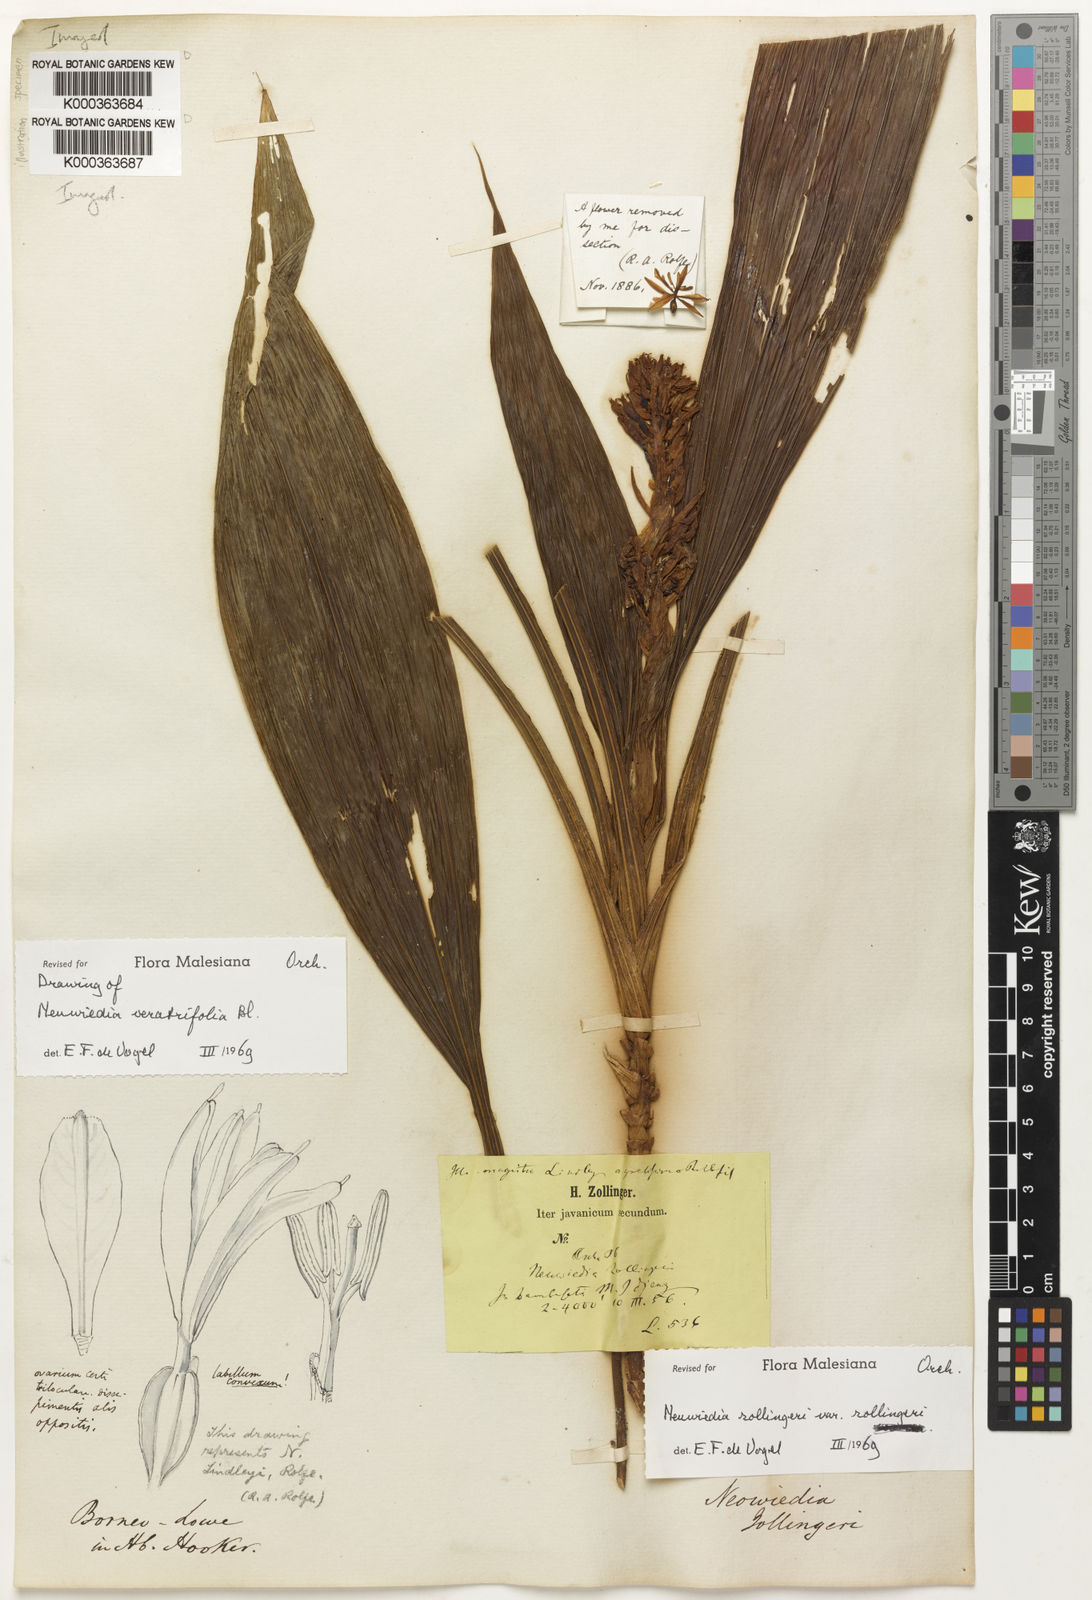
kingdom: Plantae
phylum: Tracheophyta
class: Liliopsida
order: Asparagales
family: Orchidaceae
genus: Neuwiedia
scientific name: Neuwiedia zollingeri
